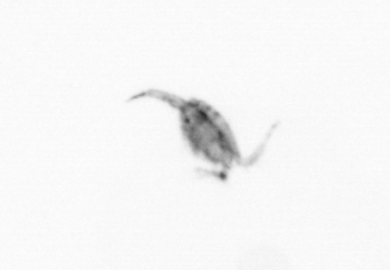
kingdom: Animalia
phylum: Arthropoda
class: Copepoda
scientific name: Copepoda
